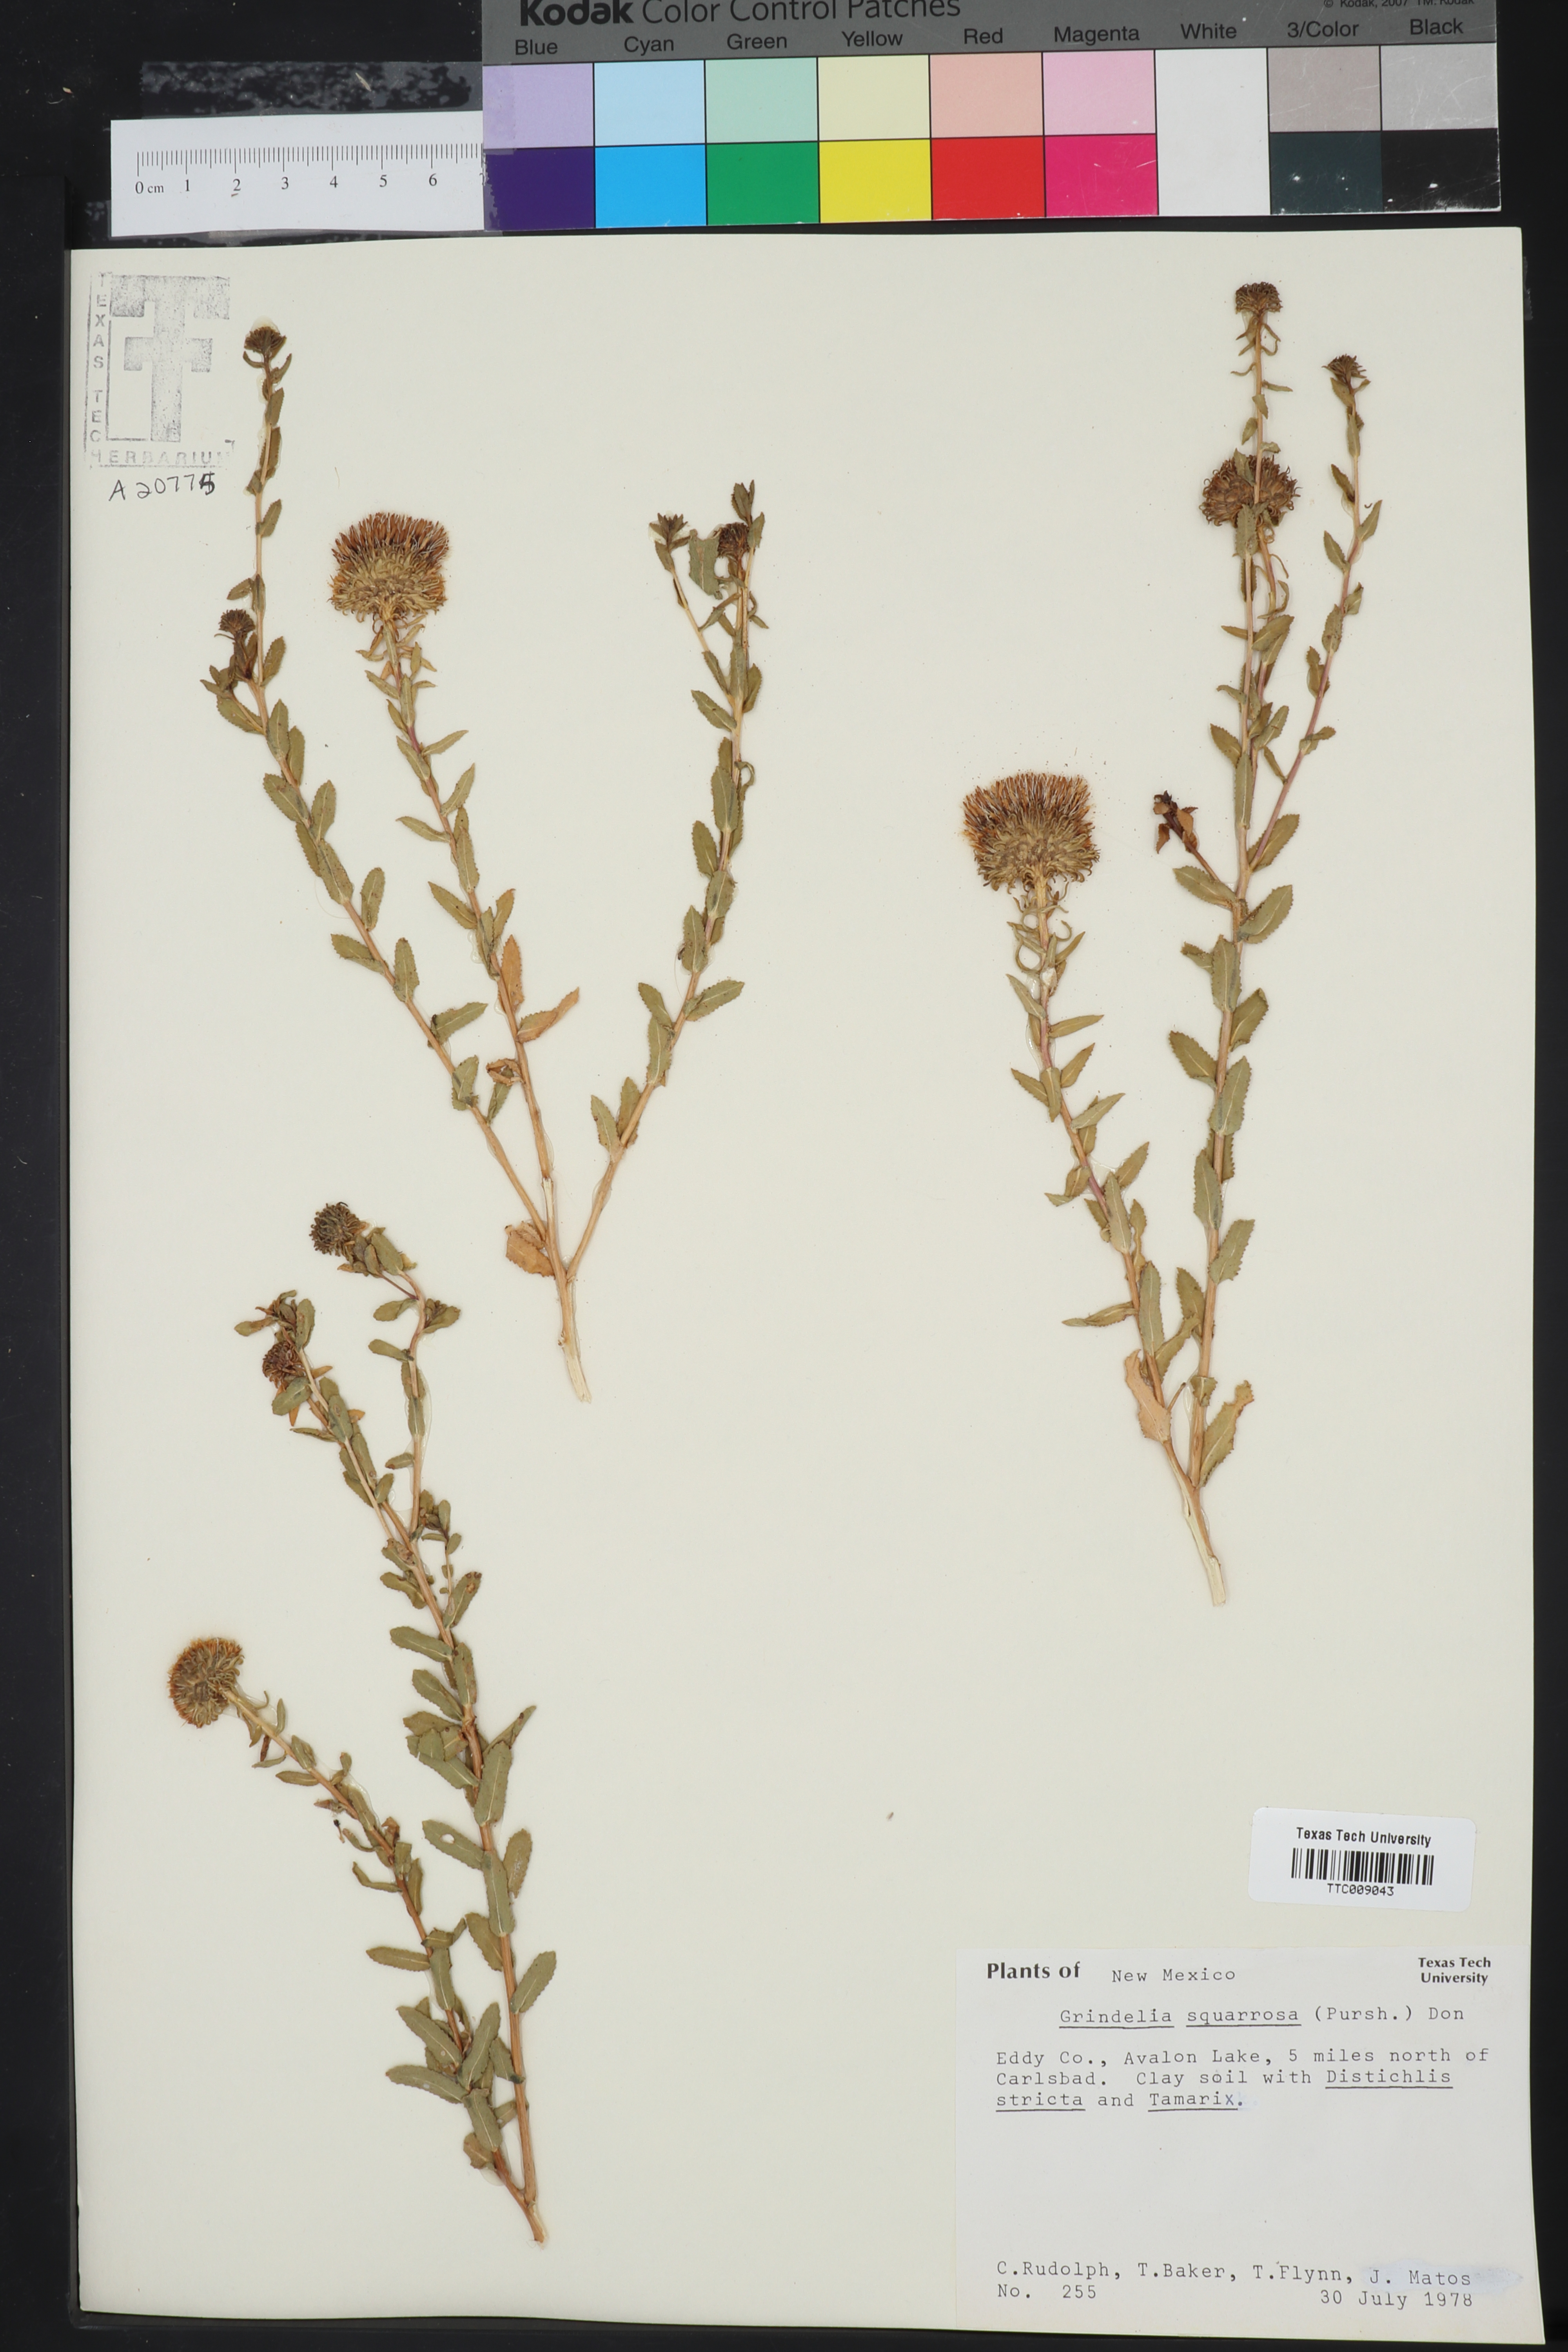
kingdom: Plantae
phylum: Tracheophyta
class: Magnoliopsida
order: Asterales
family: Asteraceae
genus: Grindelia
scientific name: Grindelia squarrosa
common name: Curly-cup gumweed
